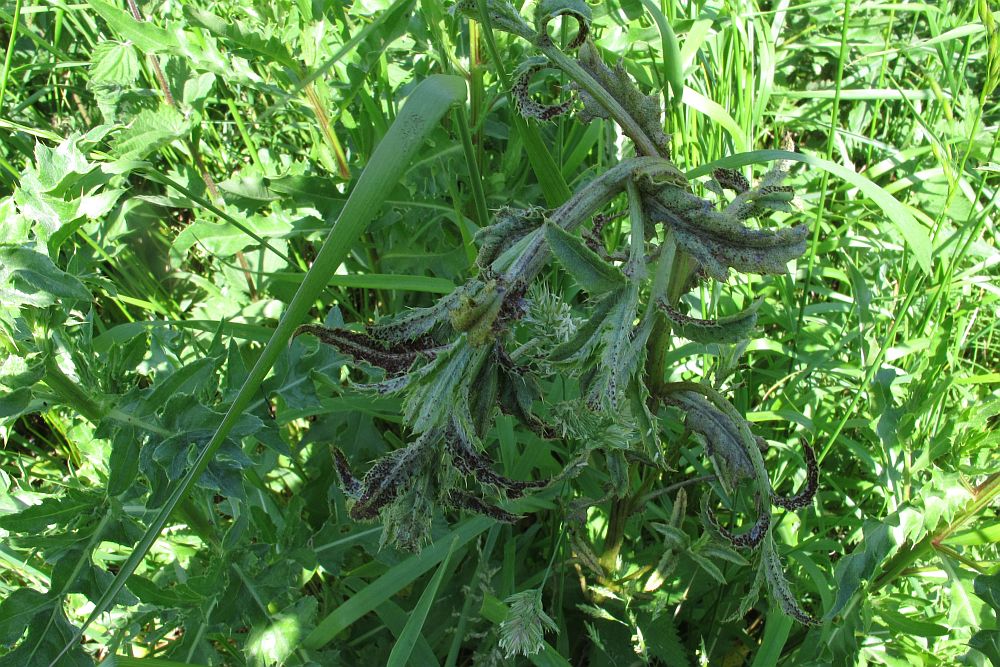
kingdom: Fungi
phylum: Basidiomycota
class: Pucciniomycetes
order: Pucciniales
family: Pucciniaceae
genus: Puccinia
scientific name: Puccinia suaveolens
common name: tidsel-tvecellerust
